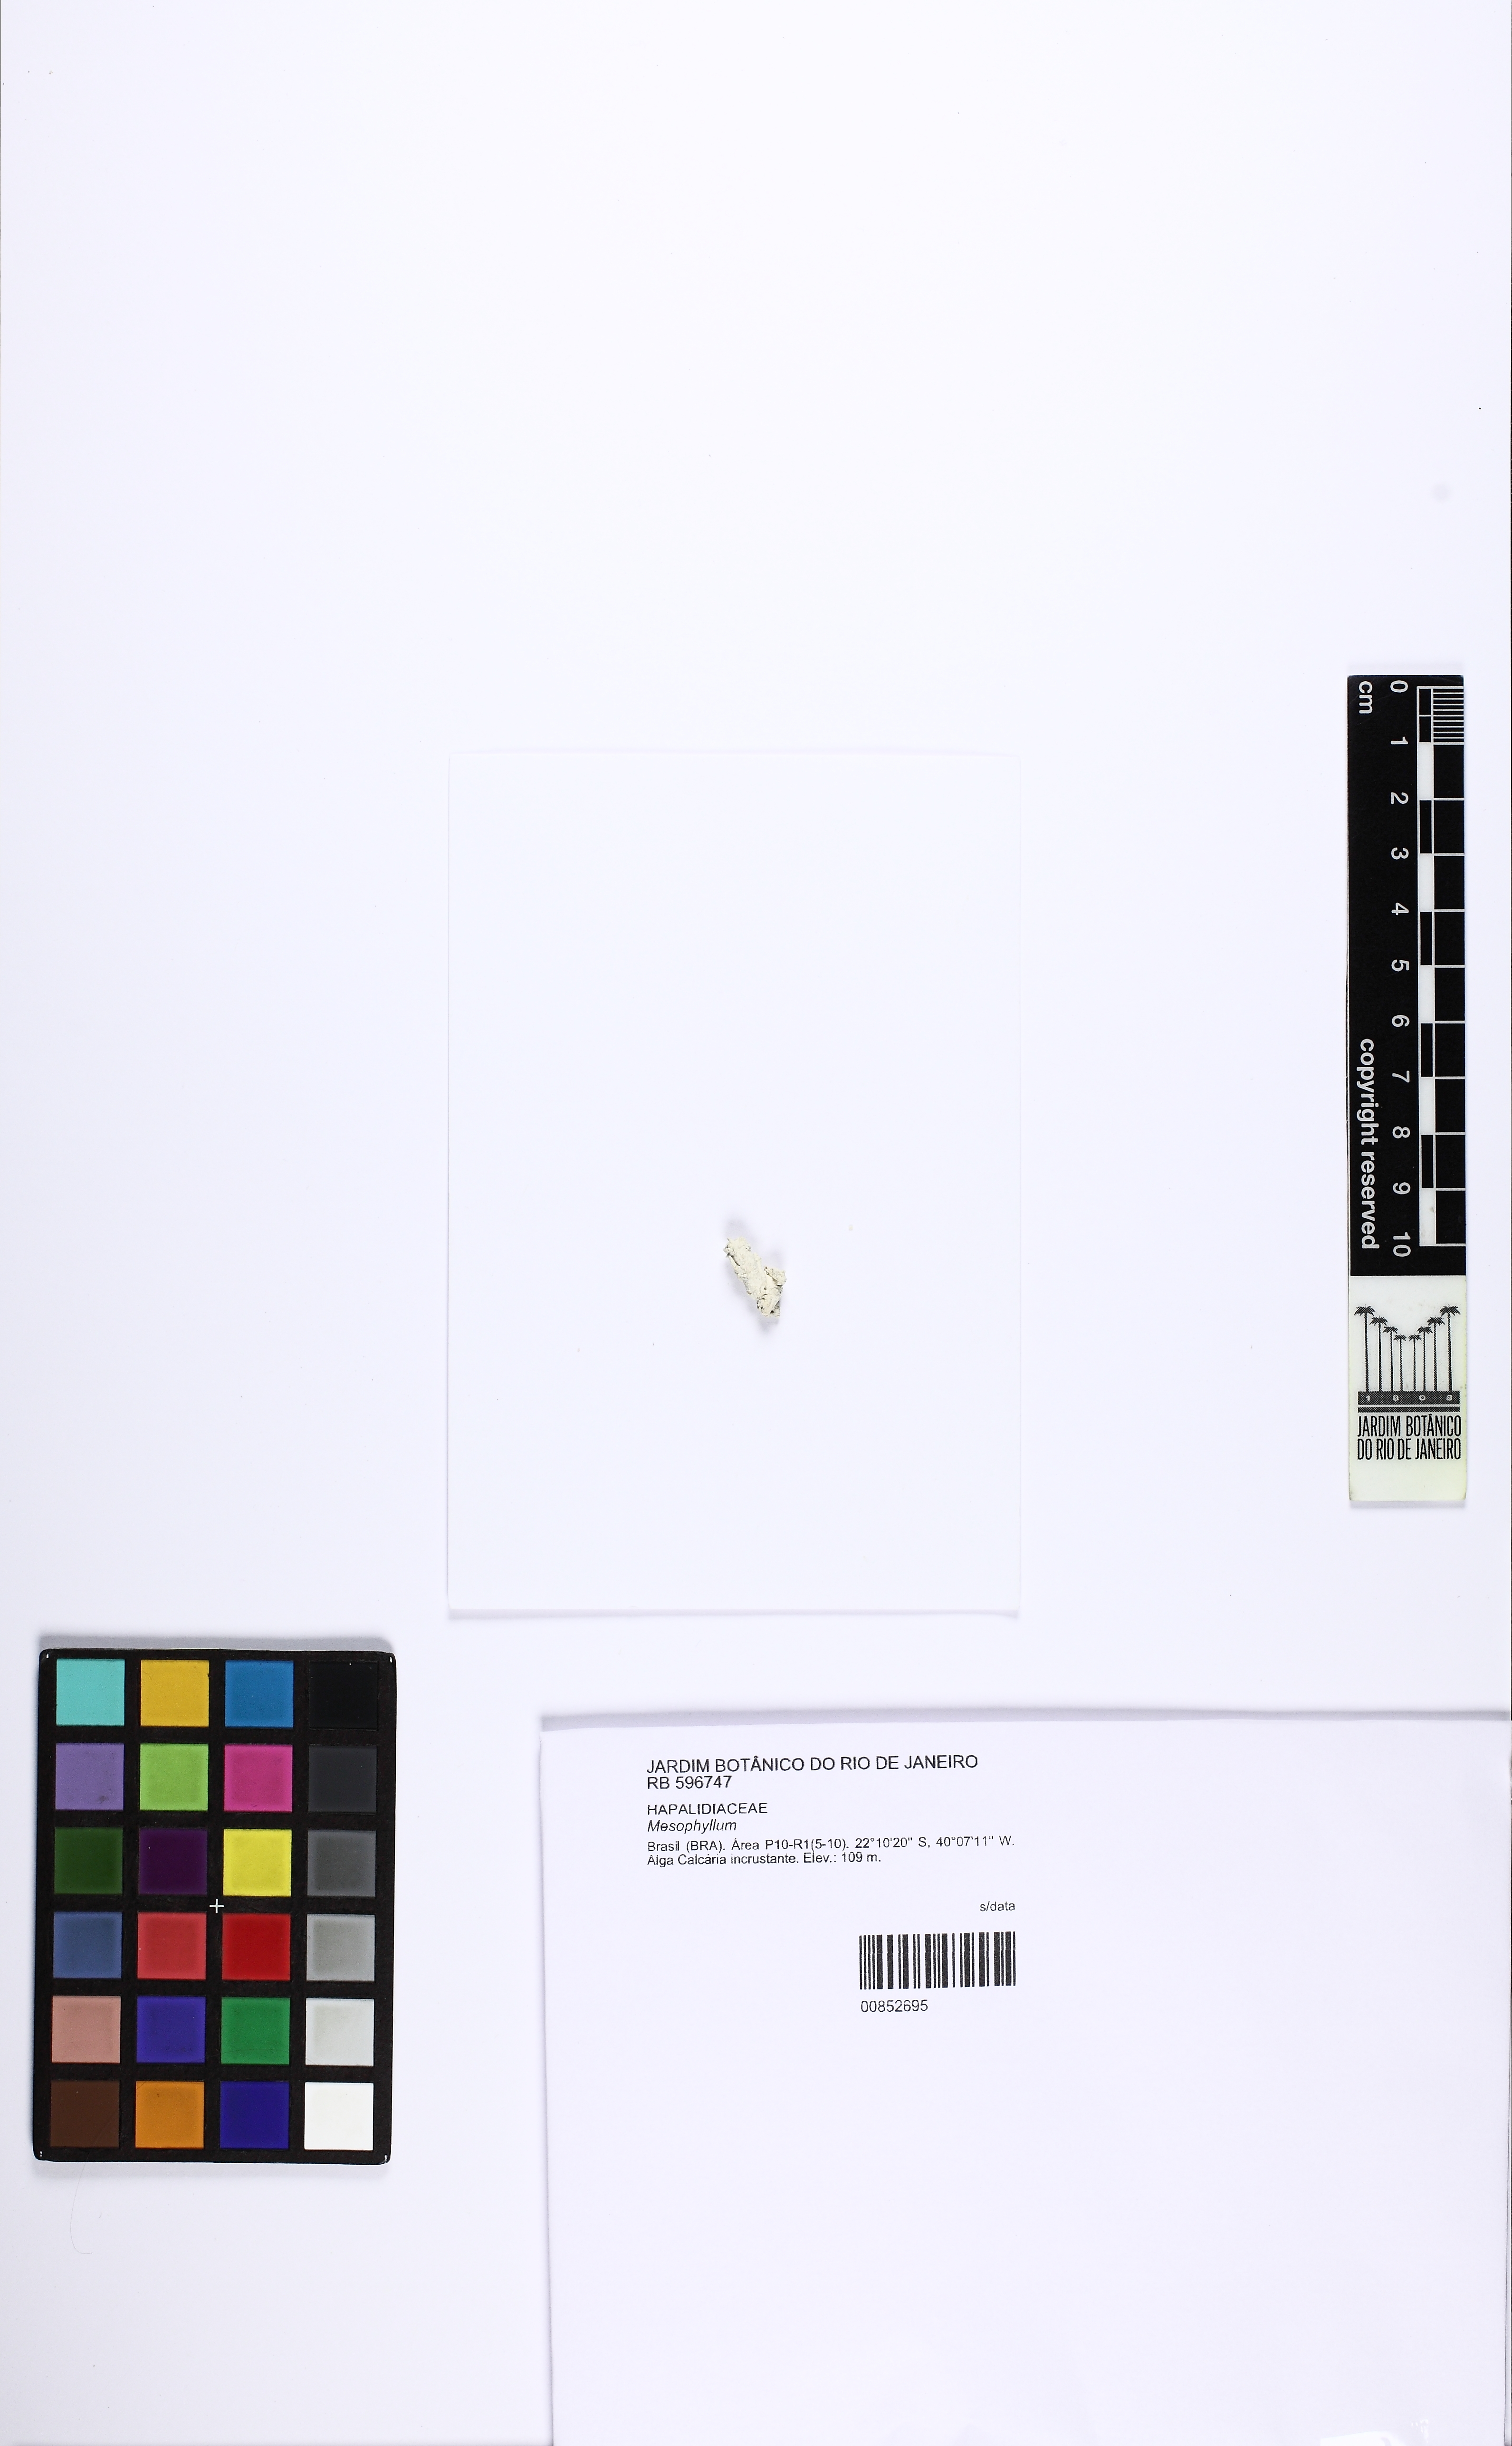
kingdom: Plantae
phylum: Rhodophyta
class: Florideophyceae
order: Corallinales
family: Mesophyllumaceae
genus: Mesophyllum
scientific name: Mesophyllum
